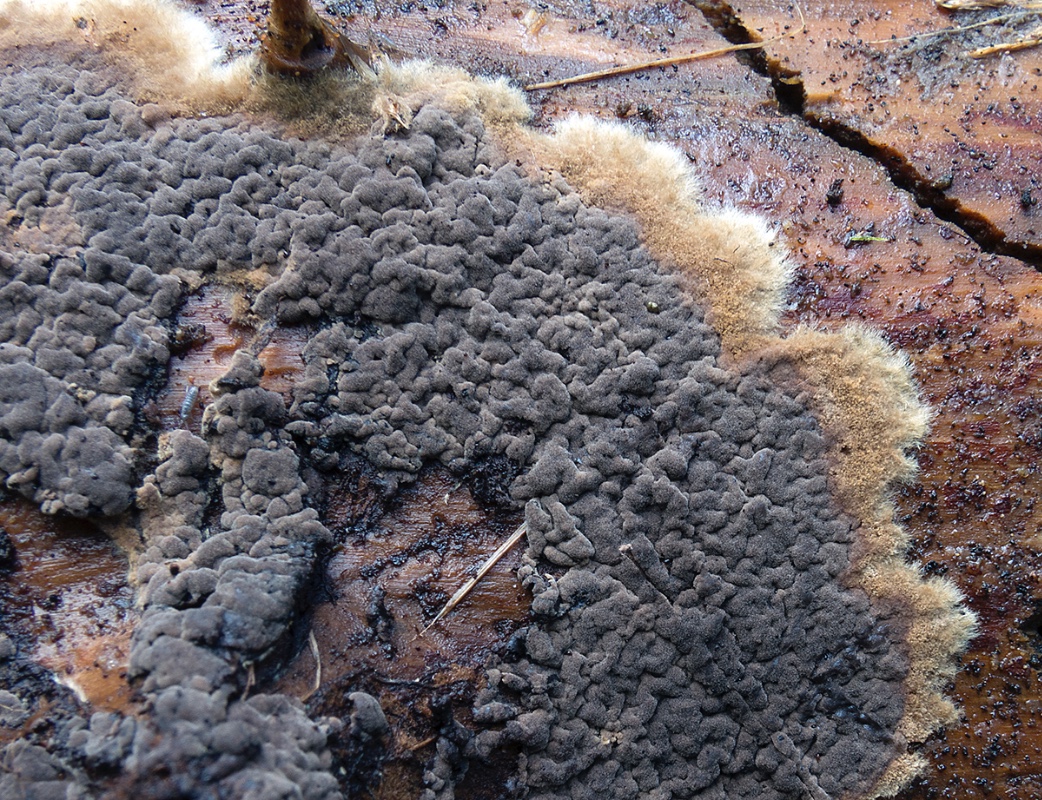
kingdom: Fungi
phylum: Basidiomycota
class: Agaricomycetes
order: Thelephorales
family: Thelephoraceae
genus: Tomentella
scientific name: Tomentella
